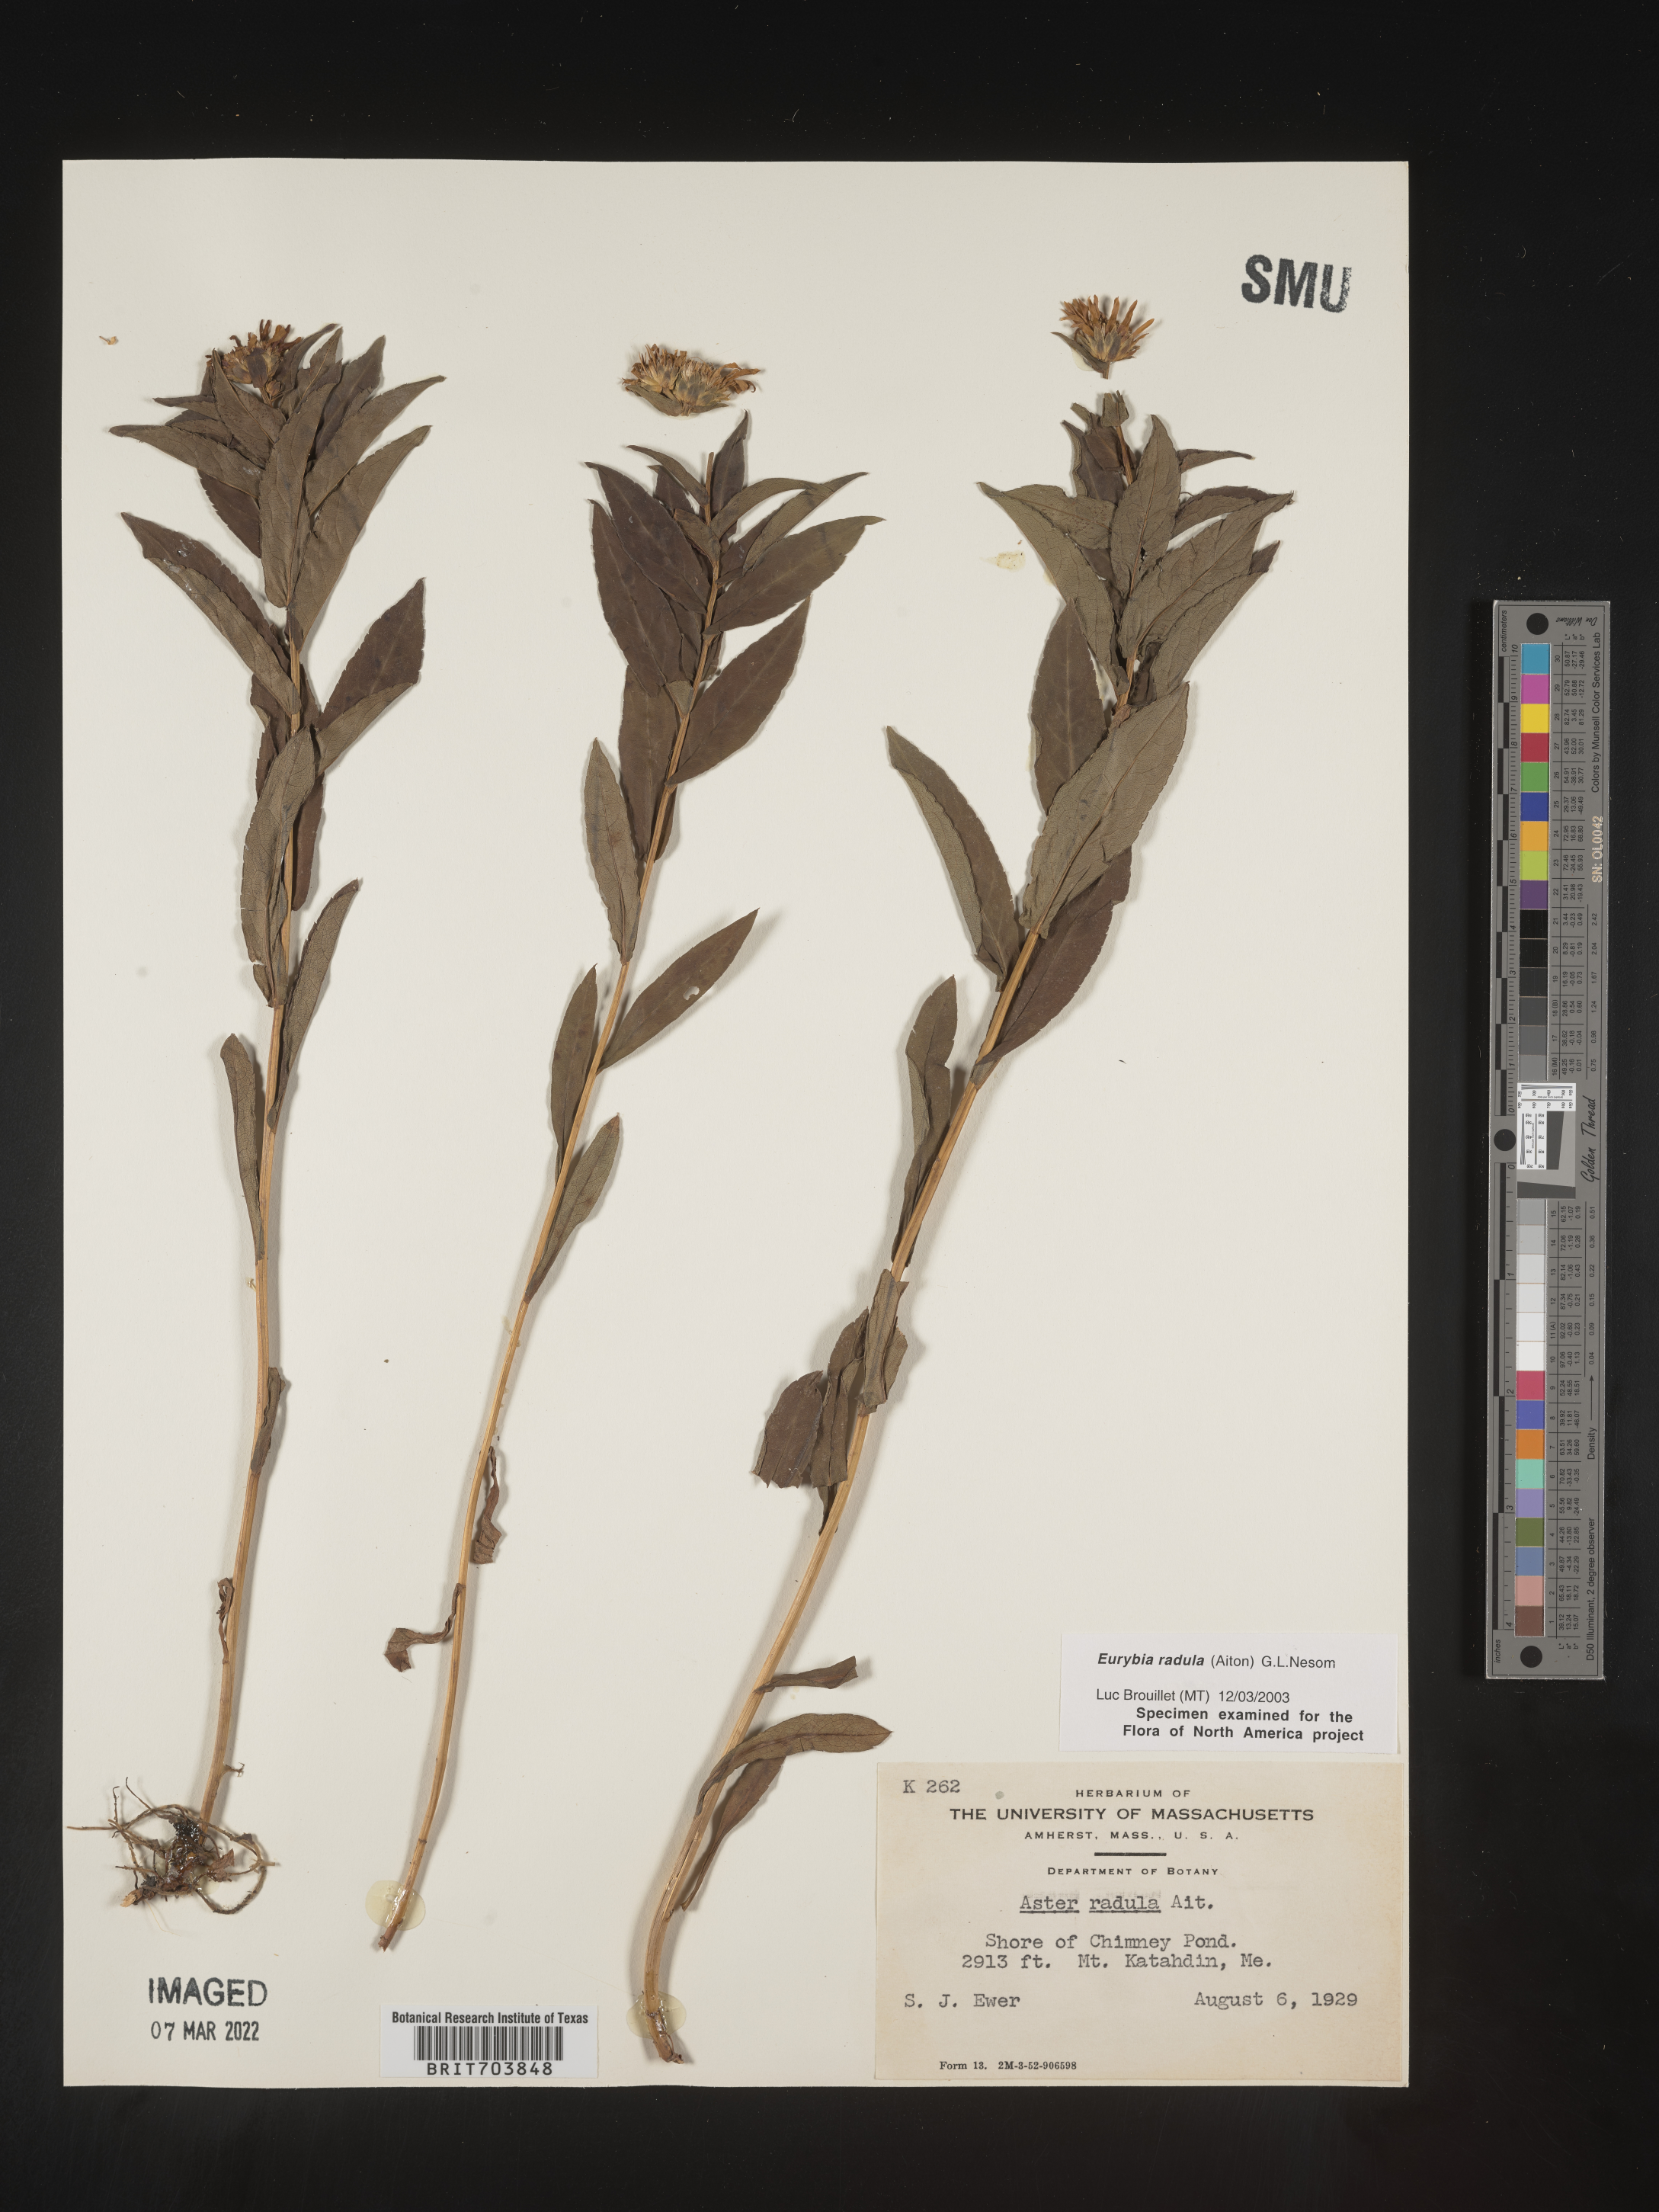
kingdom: Plantae
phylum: Tracheophyta
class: Magnoliopsida
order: Asterales
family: Asteraceae
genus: Eurybia
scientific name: Eurybia radula
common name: Low rough aster
